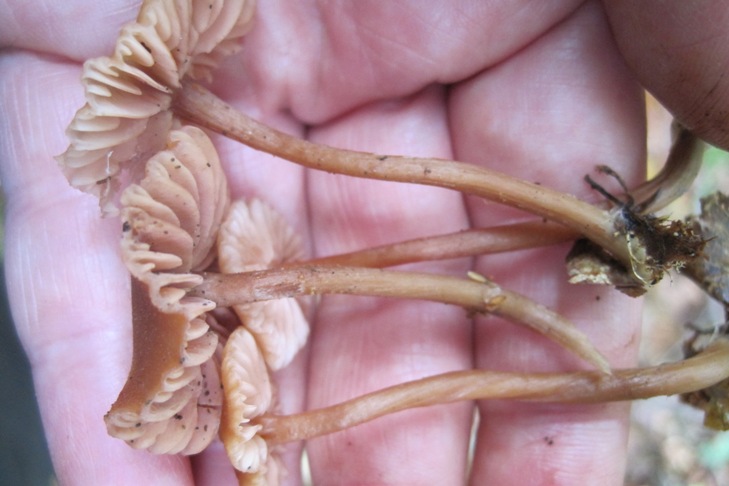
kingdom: Fungi
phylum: Basidiomycota
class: Agaricomycetes
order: Agaricales
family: Hydnangiaceae
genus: Laccaria
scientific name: Laccaria laccata
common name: rød ametysthat
